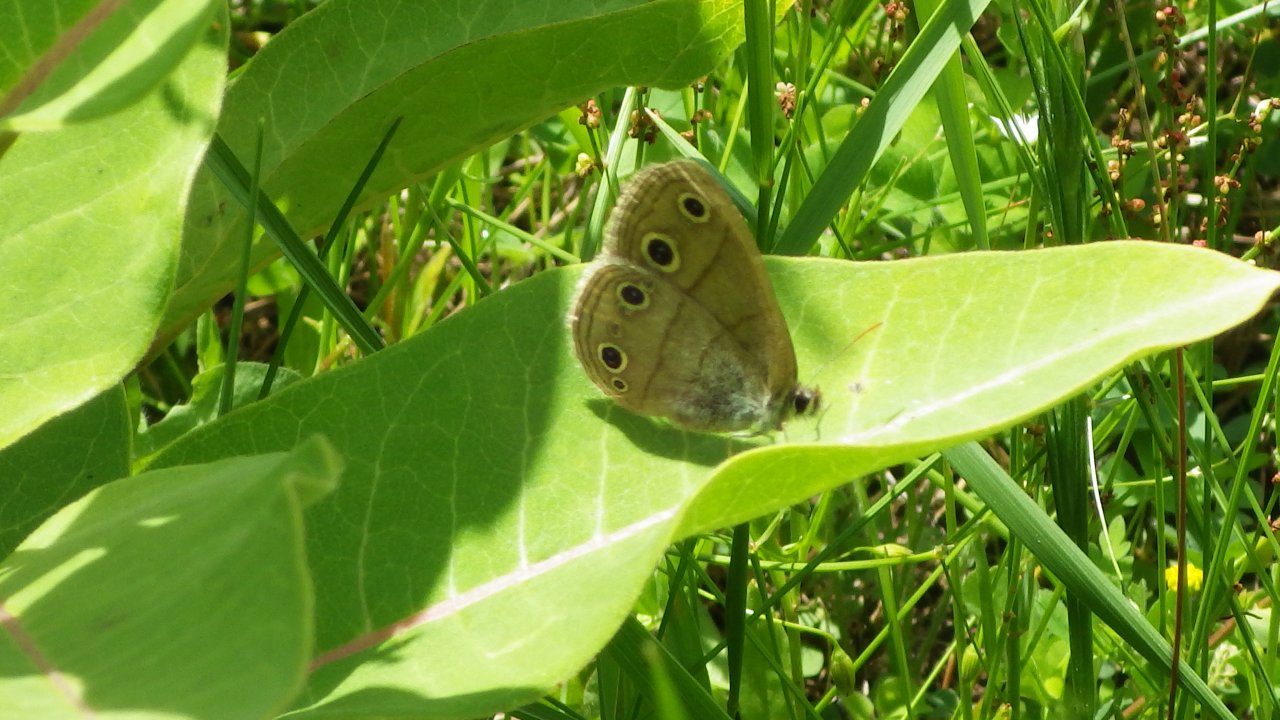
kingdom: Animalia
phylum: Arthropoda
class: Insecta
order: Lepidoptera
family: Nymphalidae
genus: Euptychia
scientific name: Euptychia cymela
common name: Little Wood Satyr
